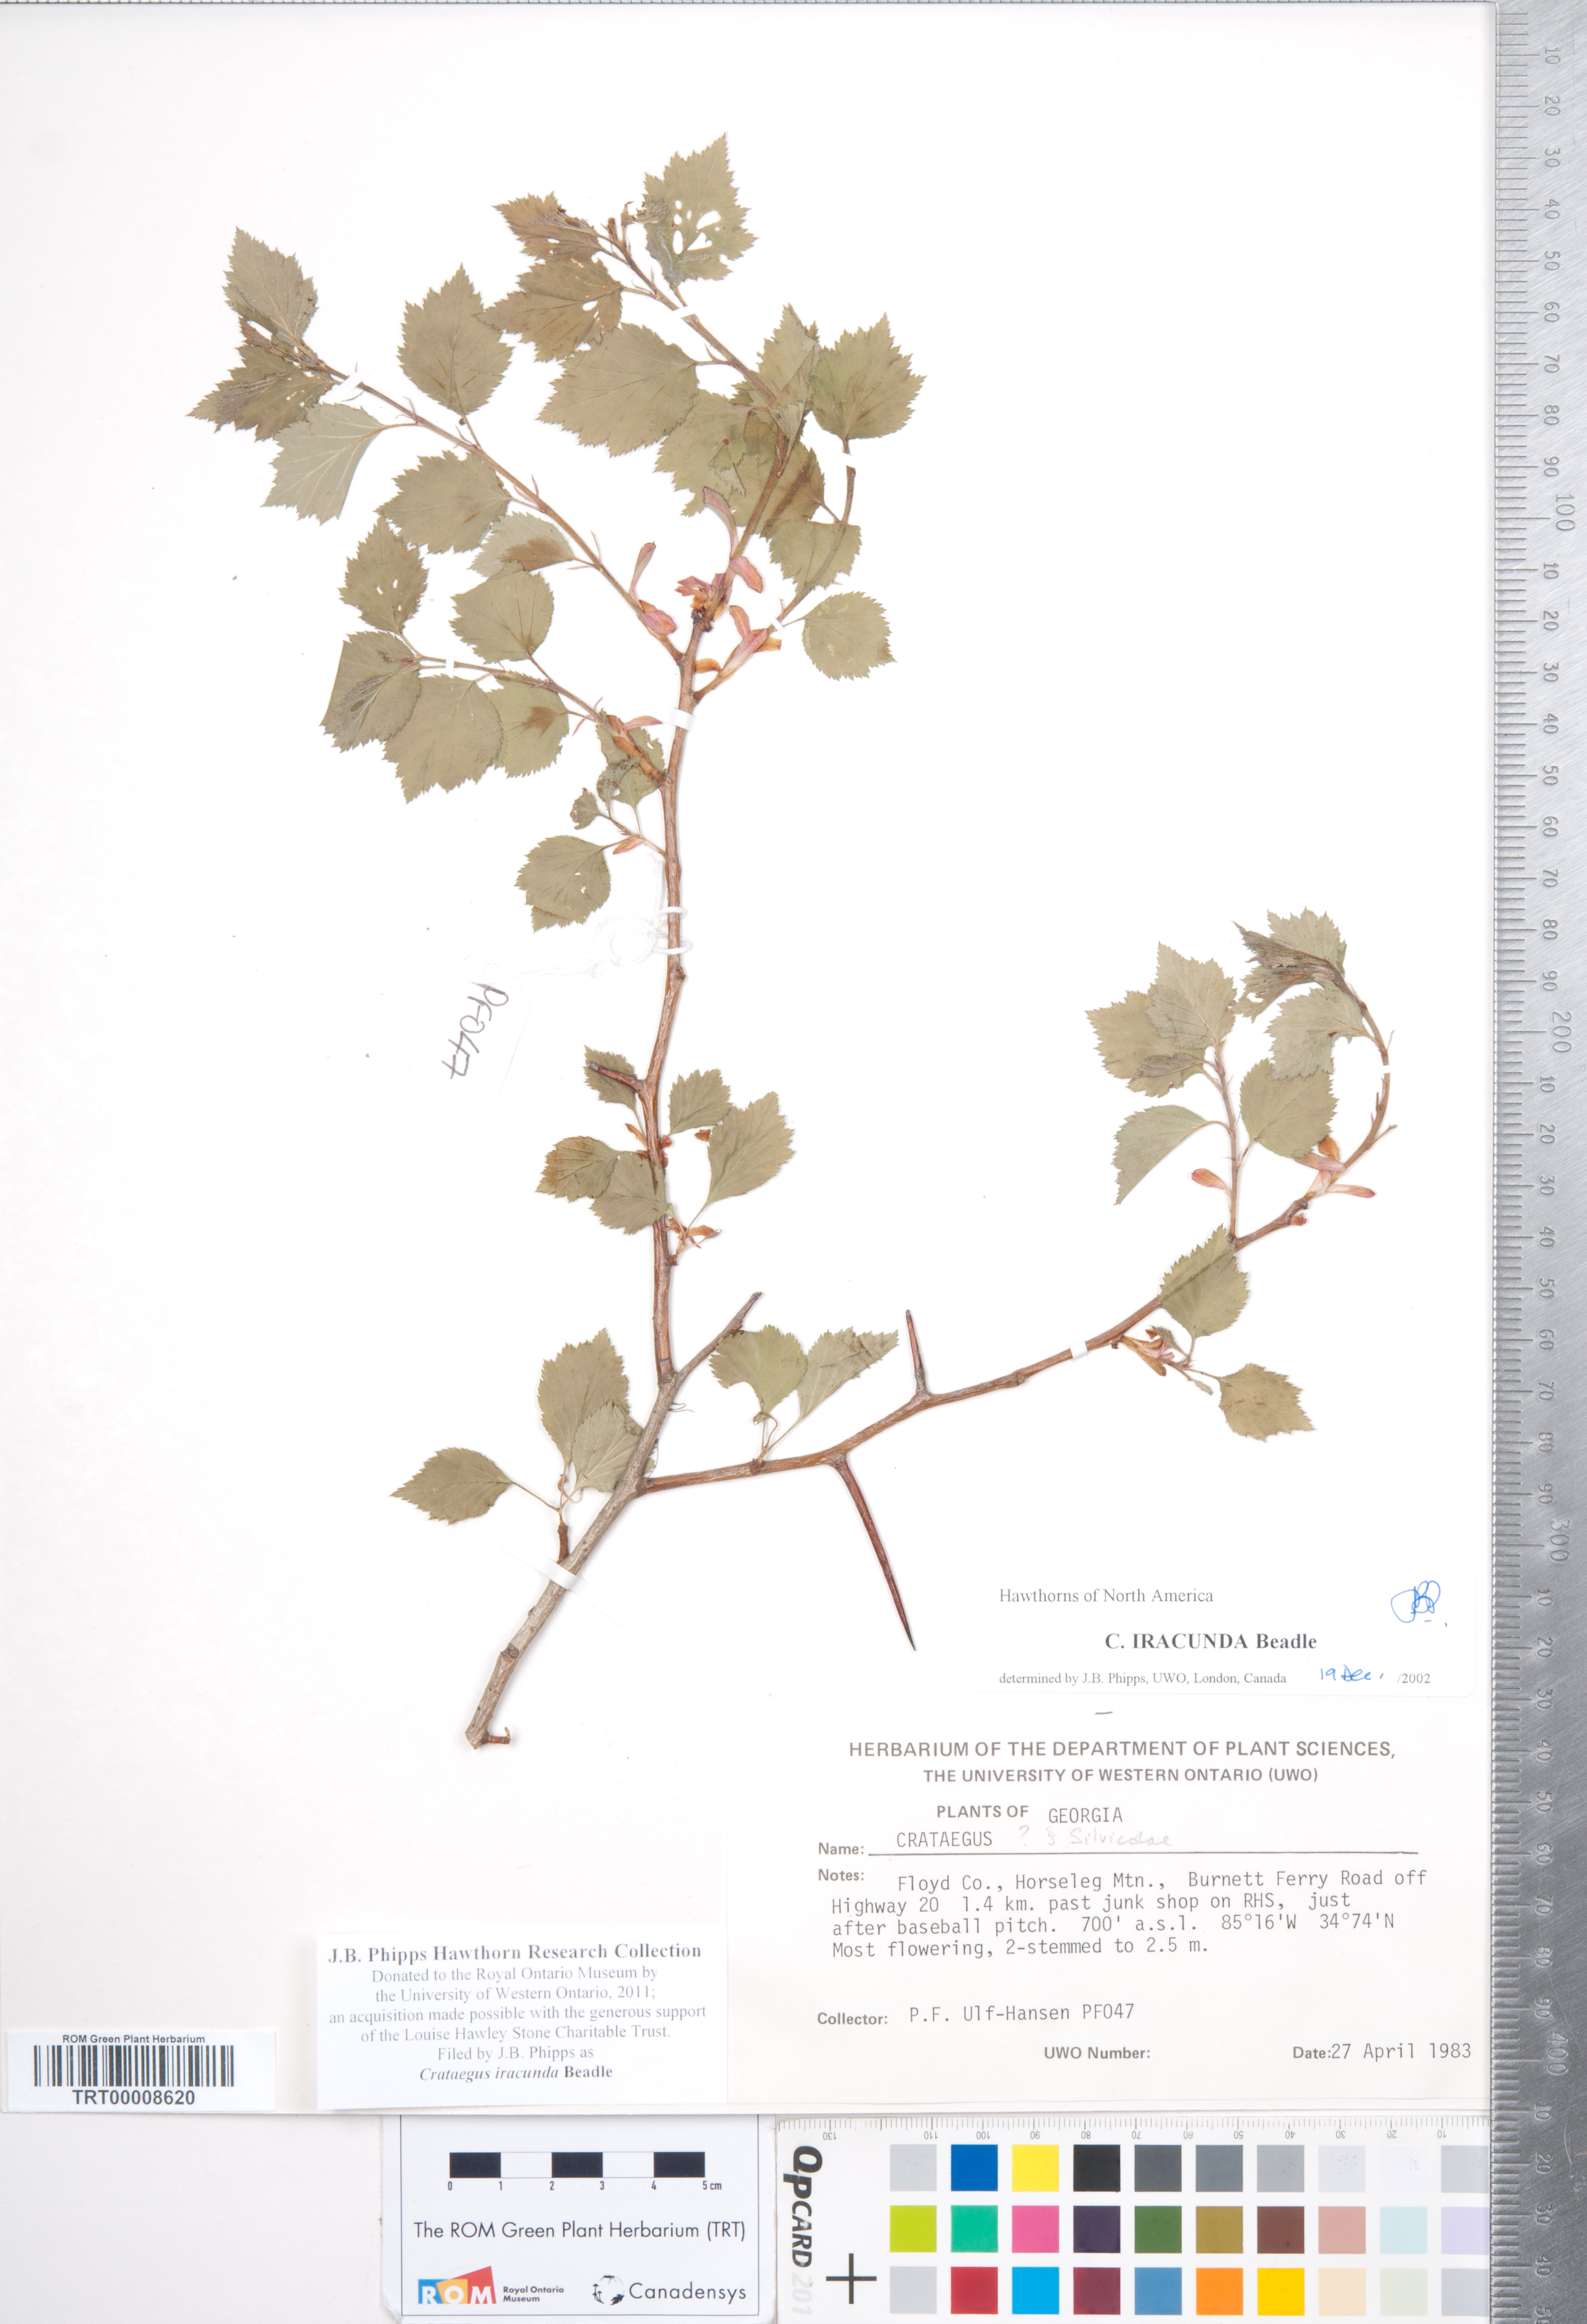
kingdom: Plantae
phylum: Tracheophyta
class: Magnoliopsida
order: Rosales
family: Rosaceae
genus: Crataegus
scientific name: Crataegus iracunda
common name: Stolon-bearing hawthorn
